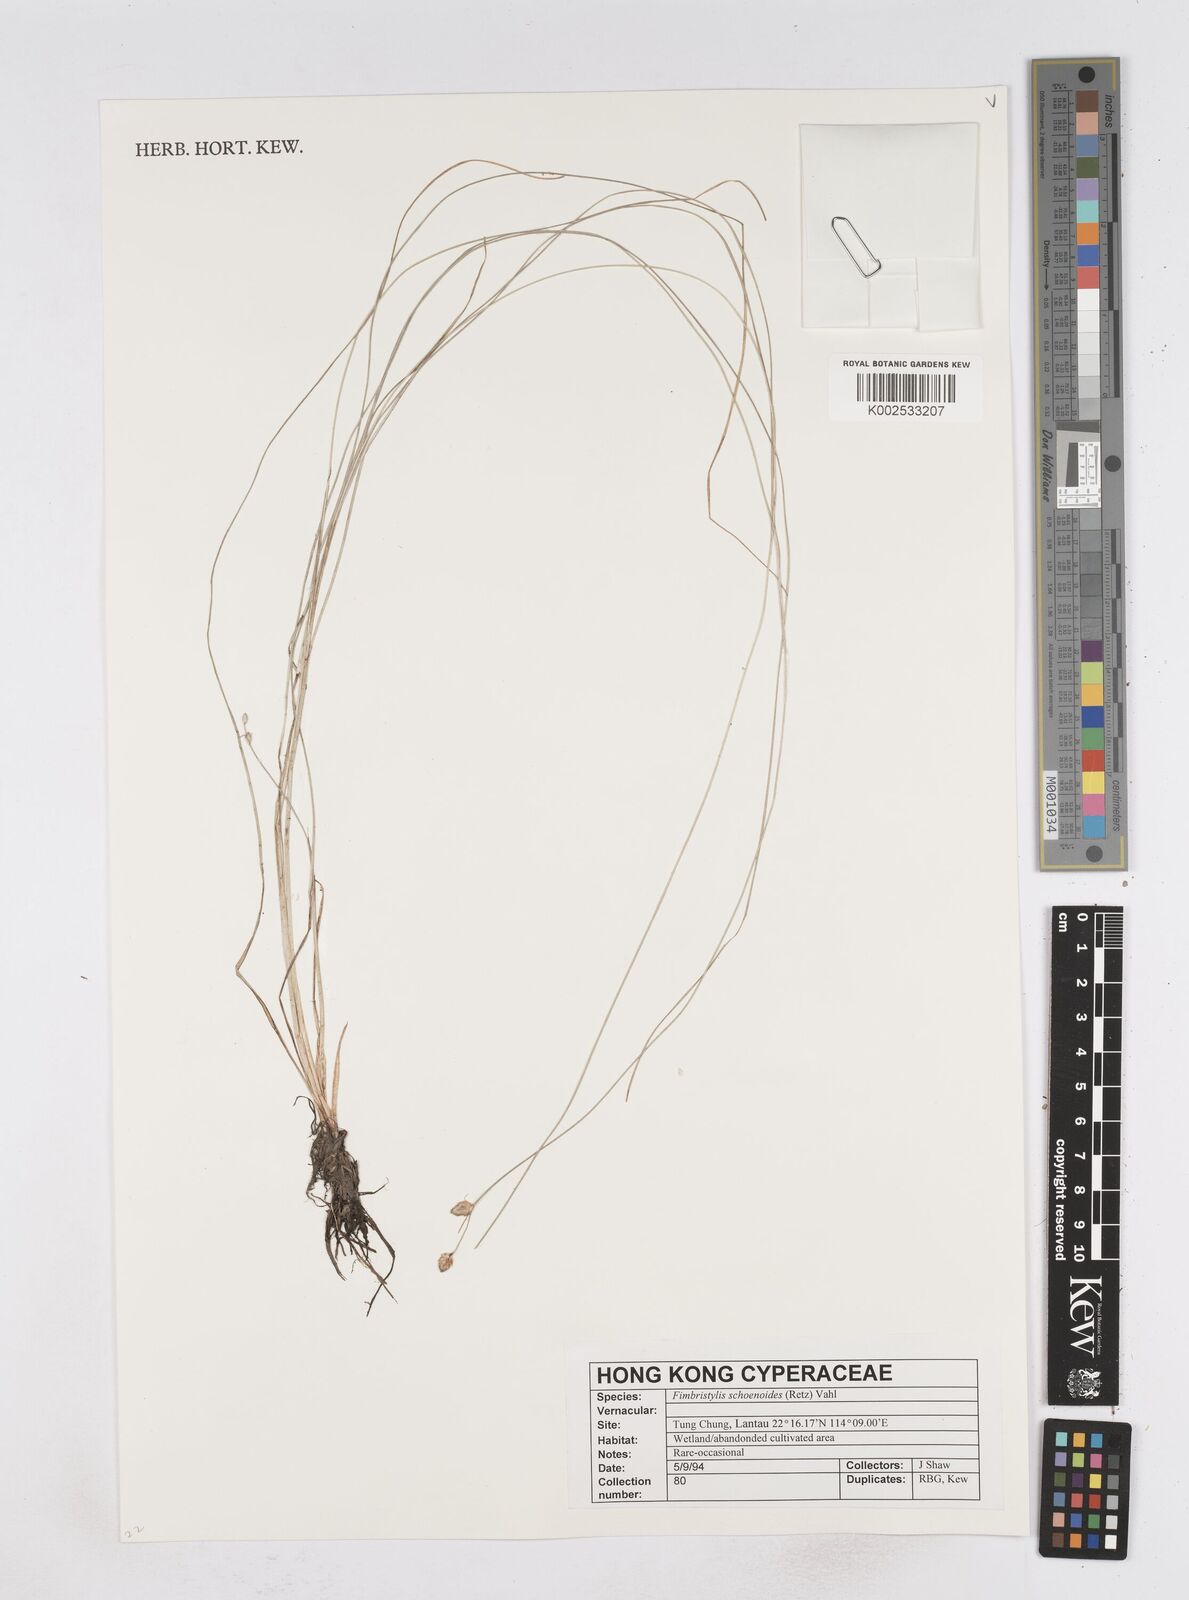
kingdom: Plantae
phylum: Tracheophyta
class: Liliopsida
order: Poales
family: Cyperaceae
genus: Fimbristylis
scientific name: Fimbristylis schoenoides
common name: Ditch fimbry
